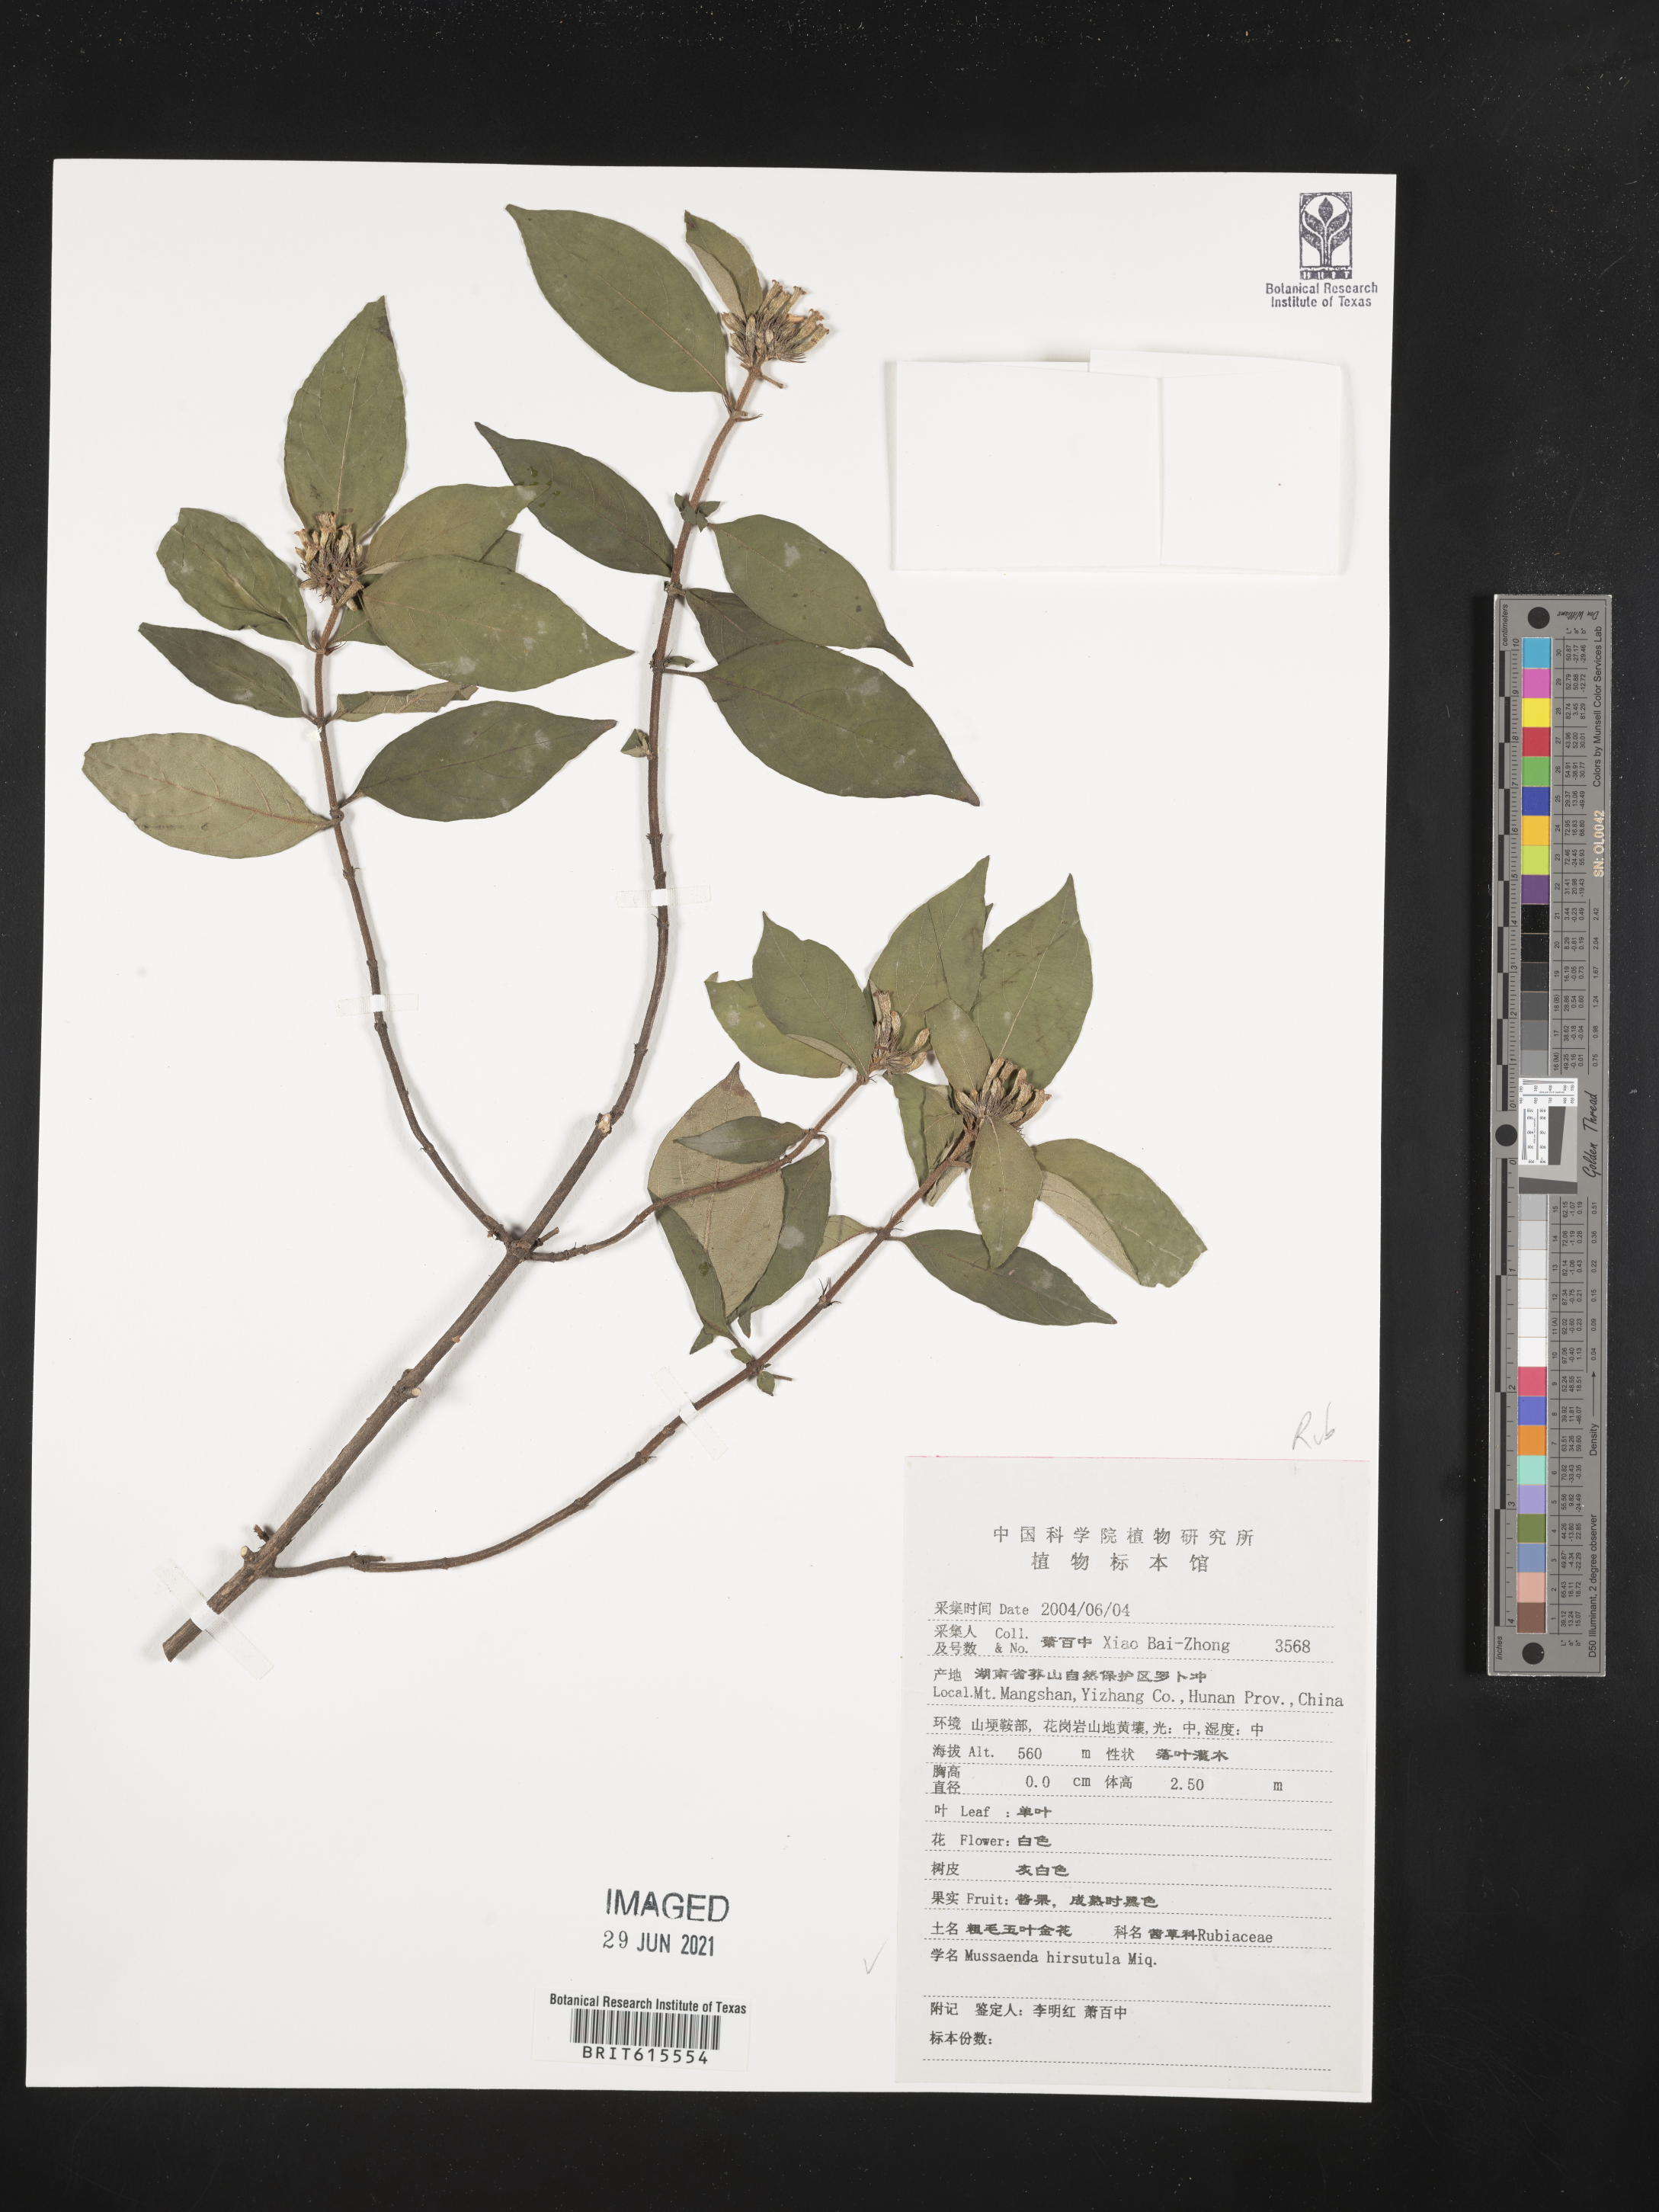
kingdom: Plantae
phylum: Tracheophyta
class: Magnoliopsida
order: Gentianales
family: Rubiaceae
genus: Mussaenda
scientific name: Mussaenda hirsutula
